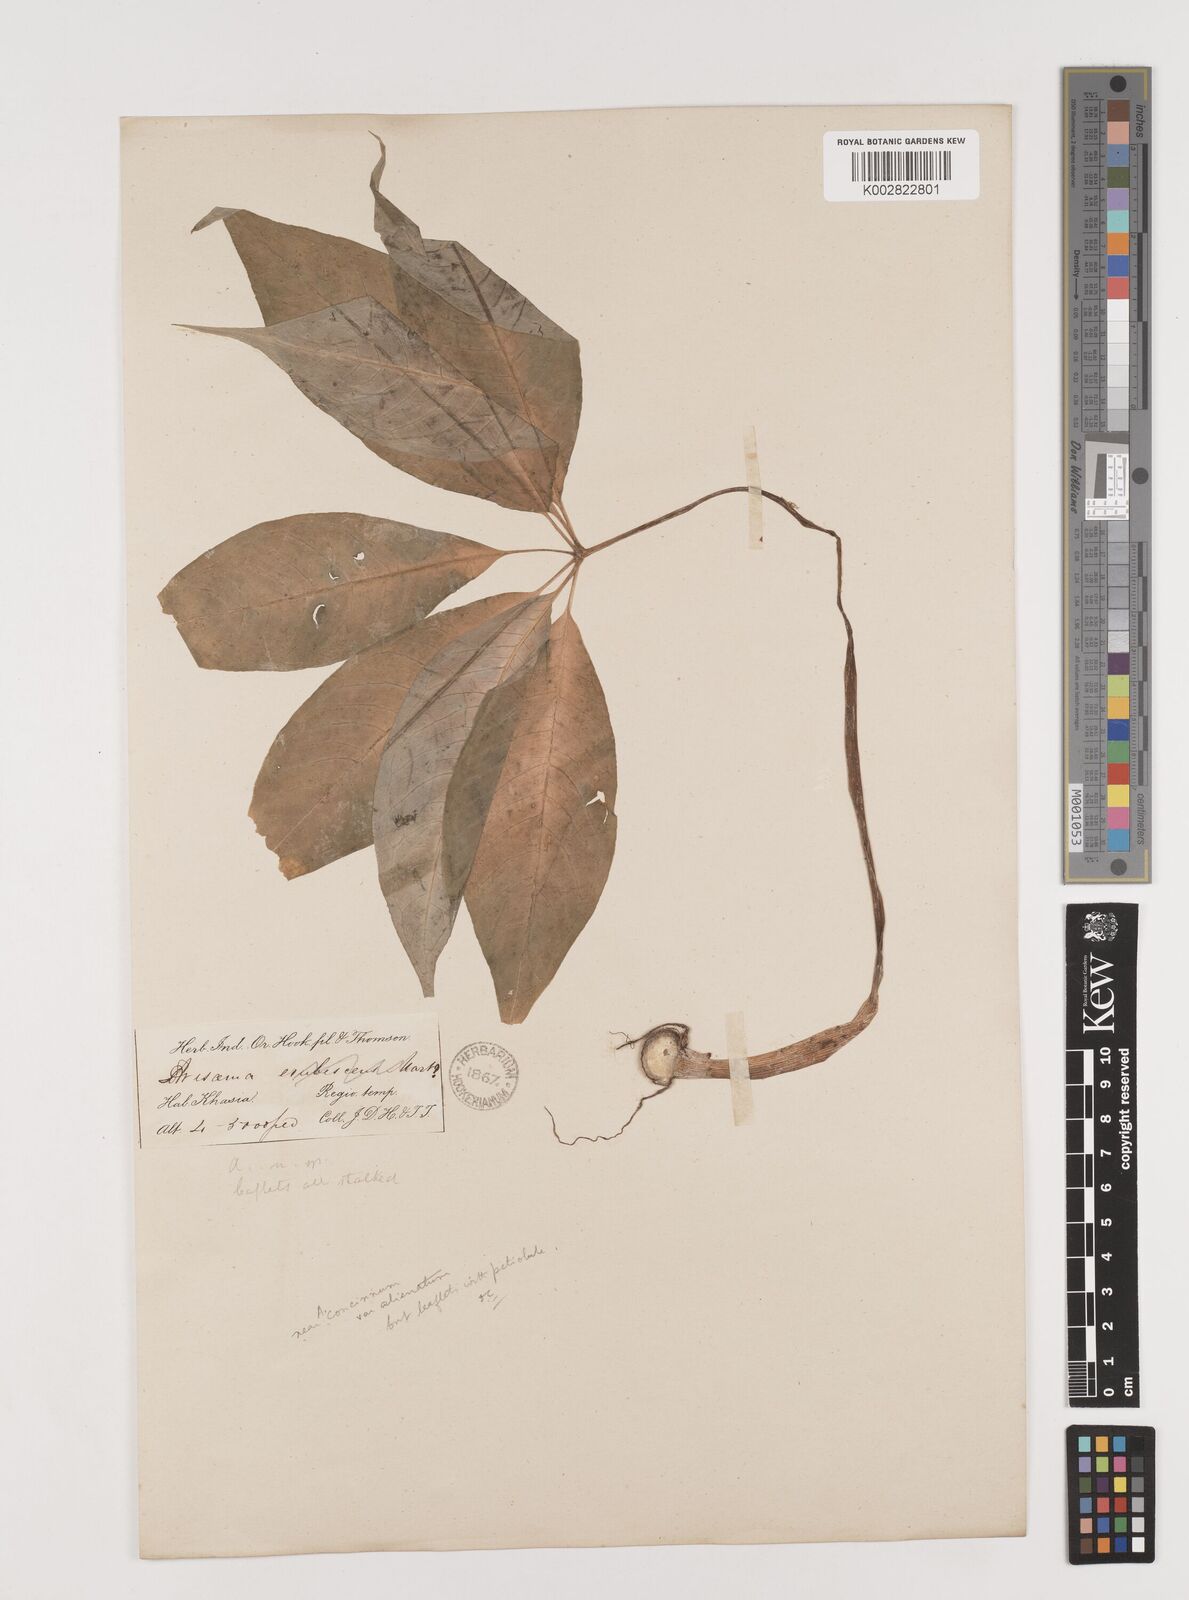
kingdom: Plantae
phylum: Tracheophyta
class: Liliopsida
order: Alismatales
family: Araceae
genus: Arisaema
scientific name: Arisaema concinnum
